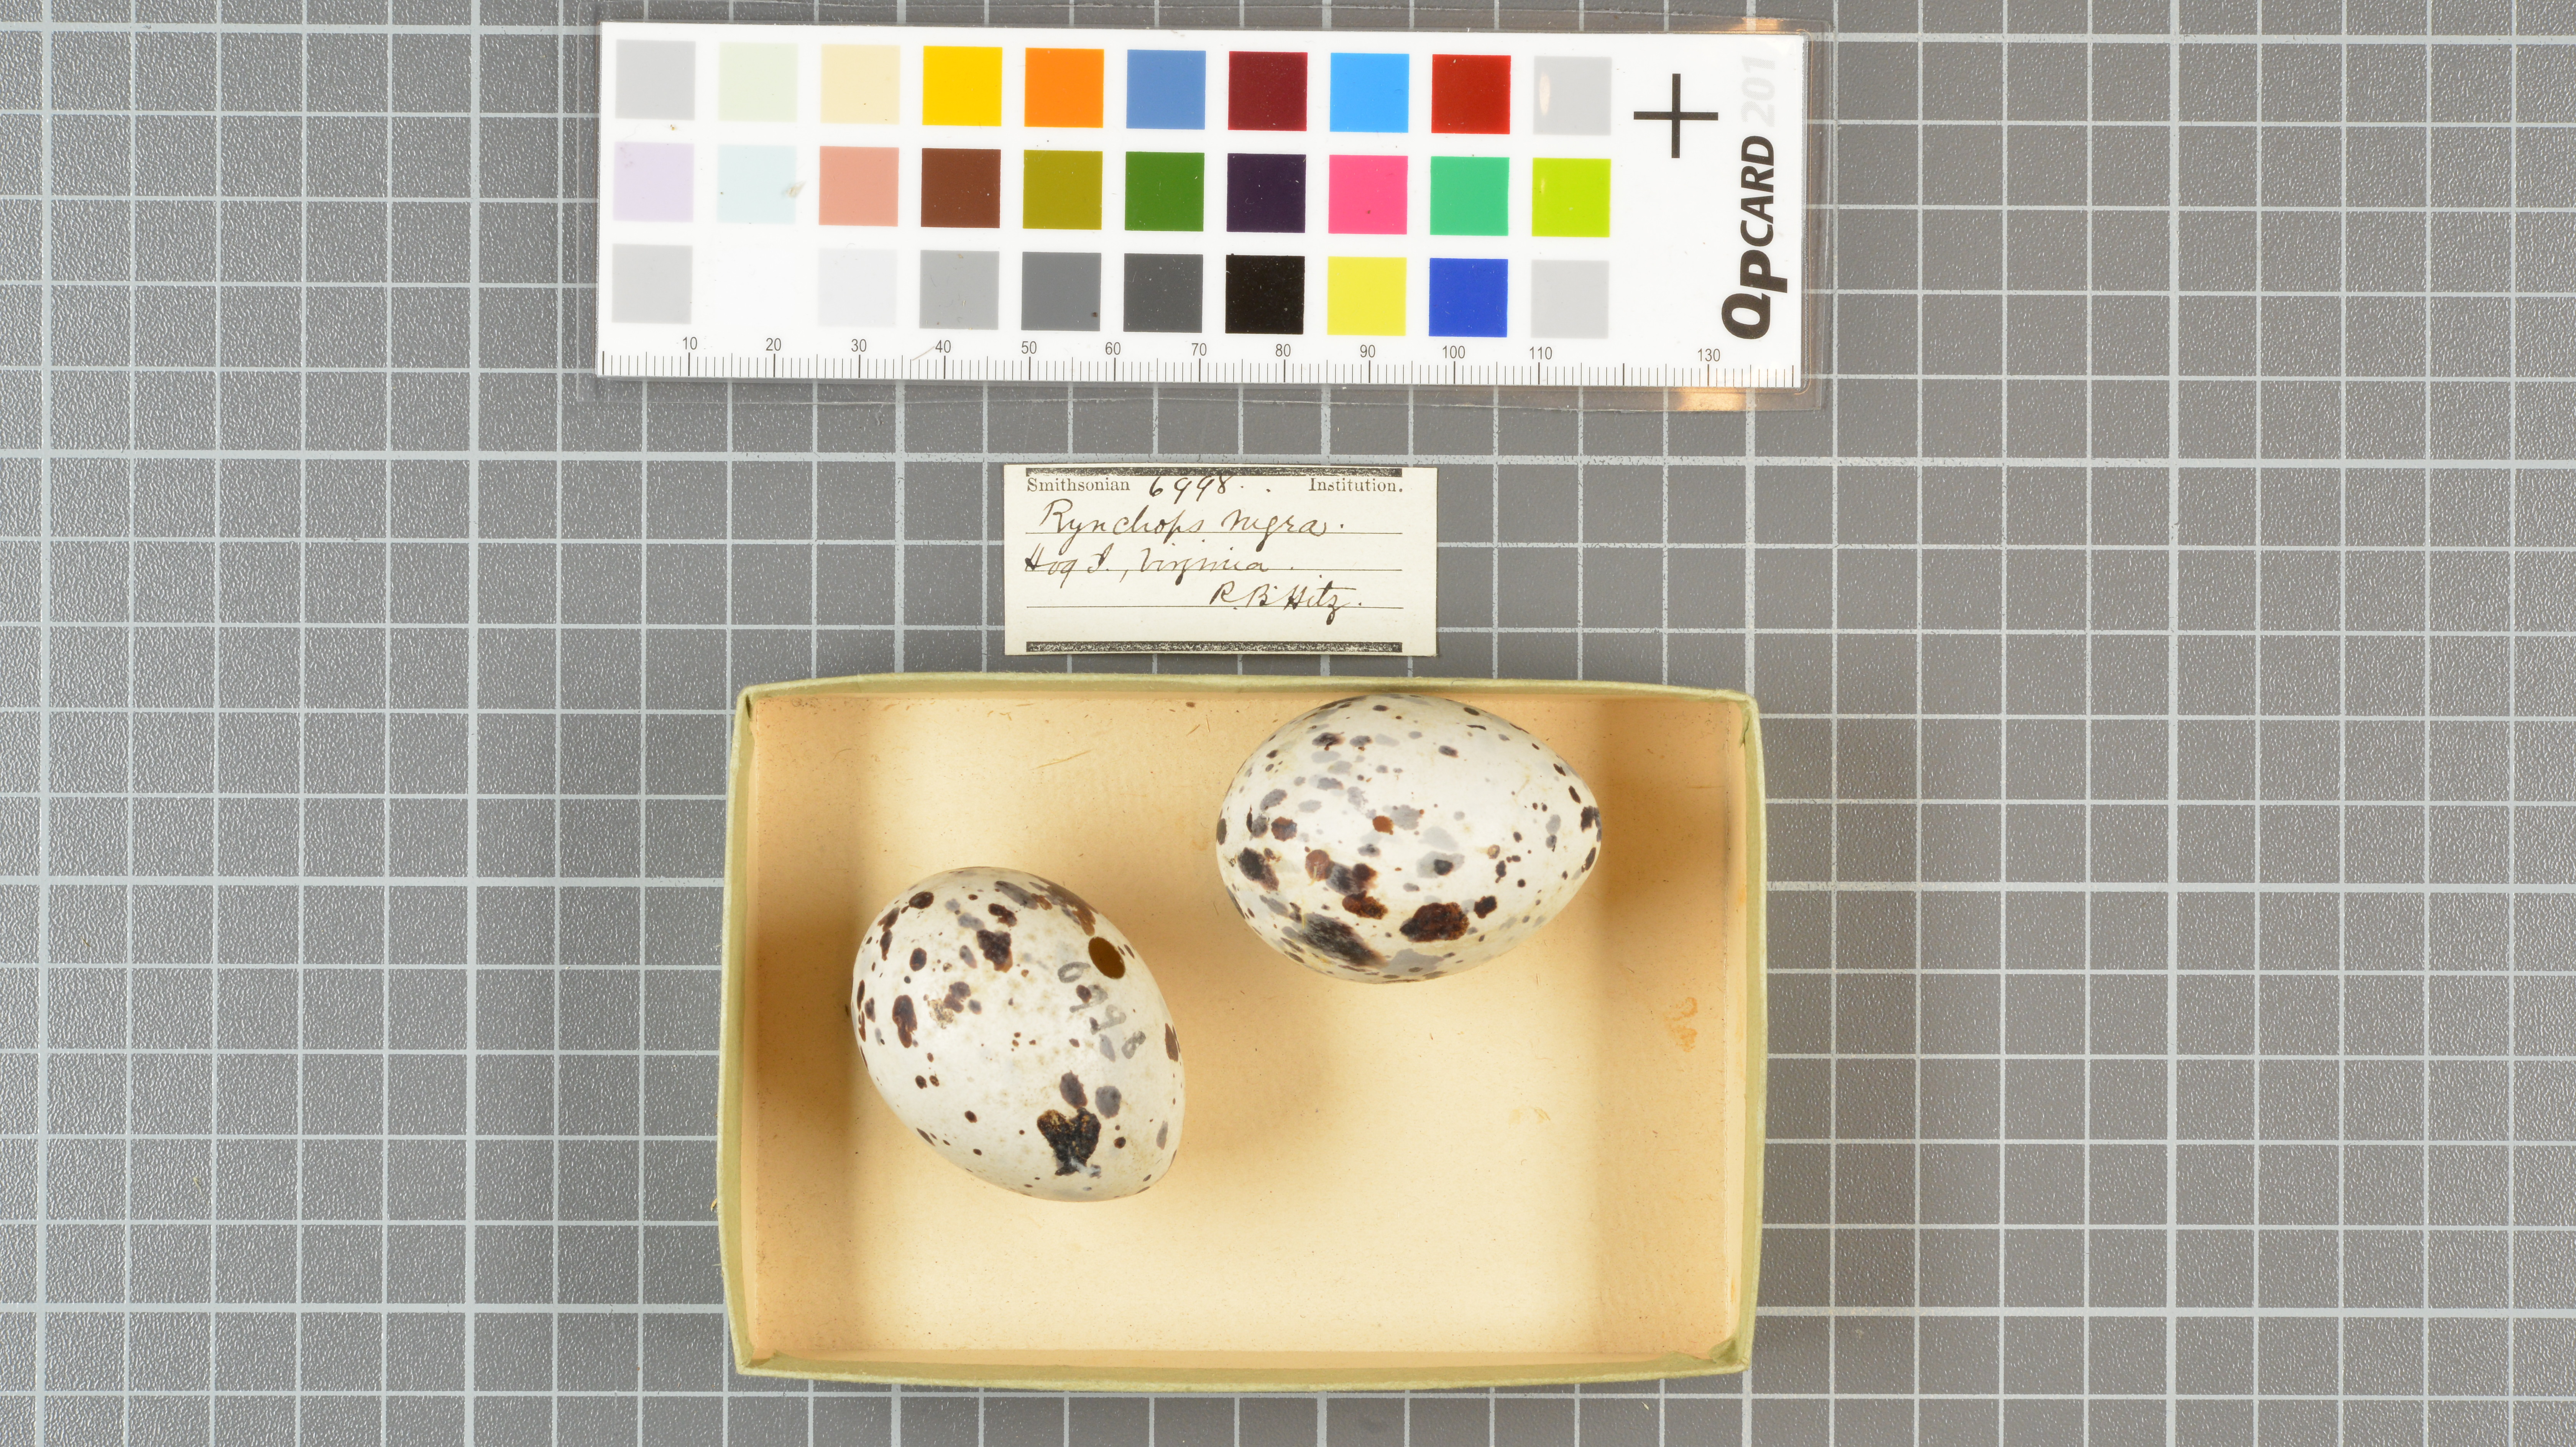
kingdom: Animalia
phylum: Chordata
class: Aves
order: Charadriiformes
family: Laridae
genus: Rynchops
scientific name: Rynchops niger
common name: Black skimmer
